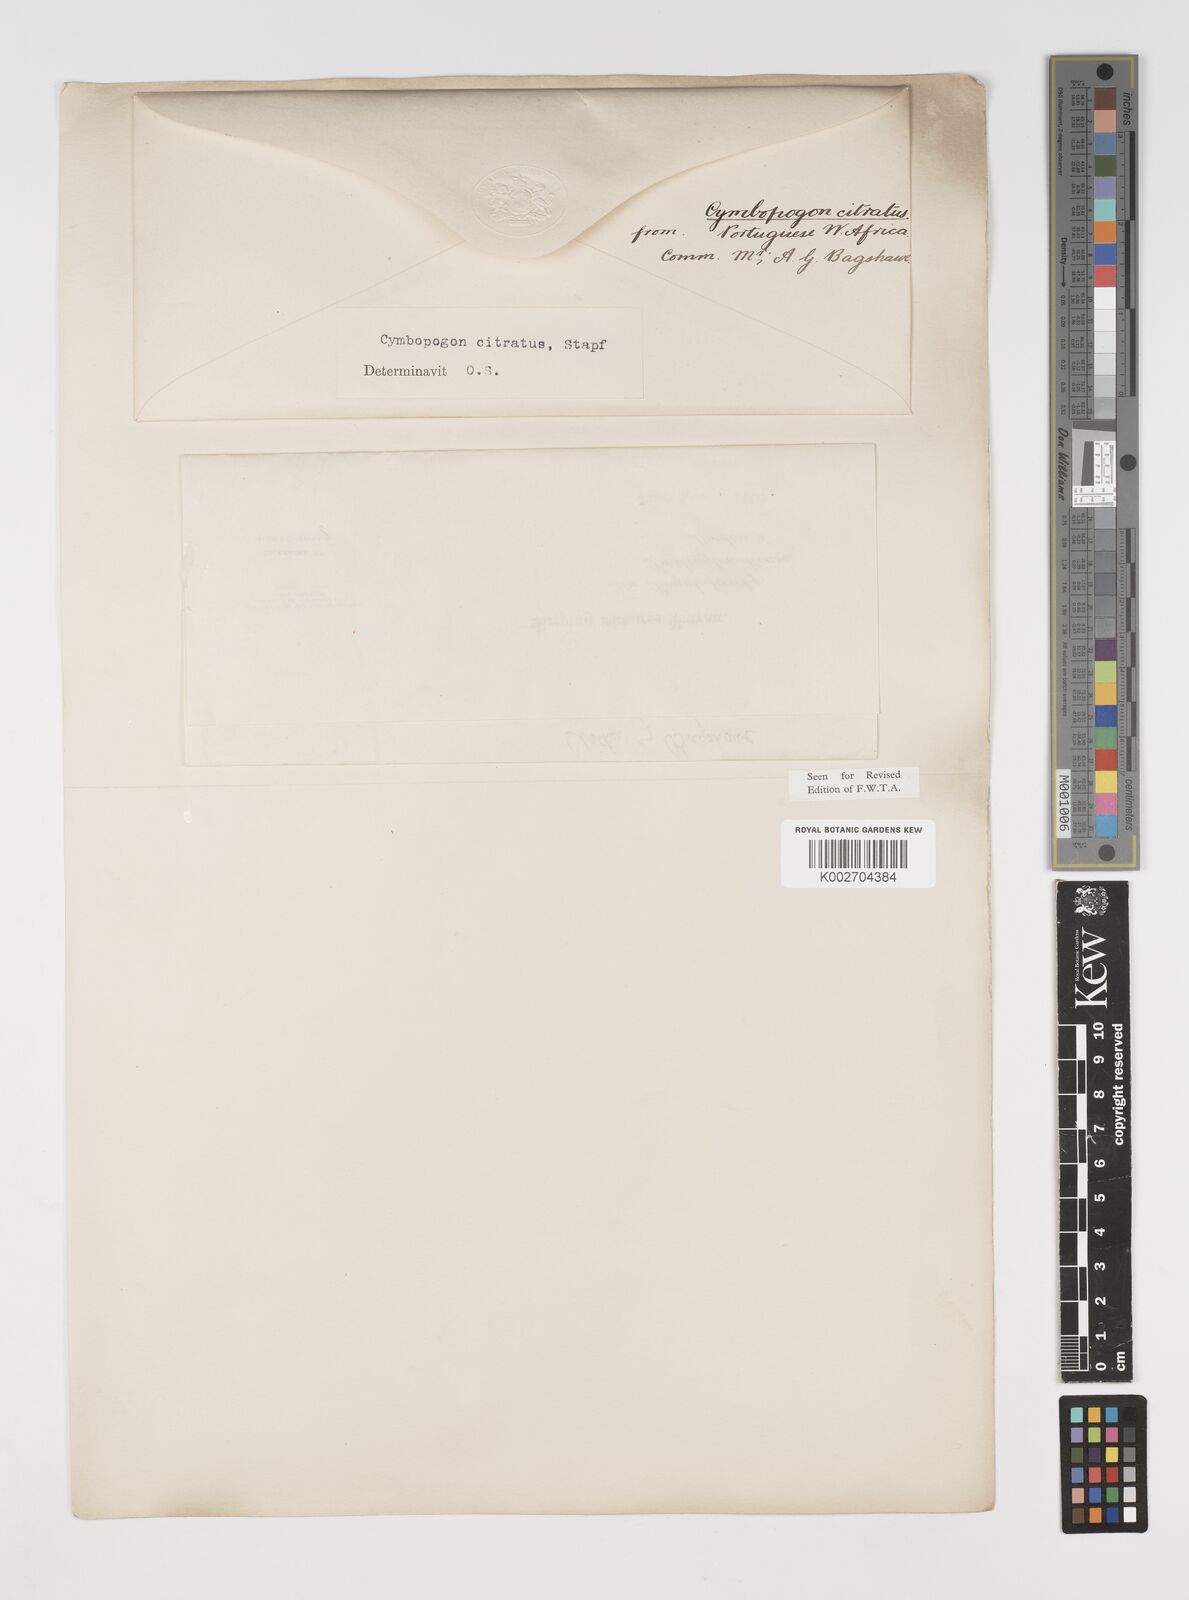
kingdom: Plantae
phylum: Tracheophyta
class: Liliopsida
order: Poales
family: Poaceae
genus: Cymbopogon
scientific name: Cymbopogon citratus
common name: Lemon grass
